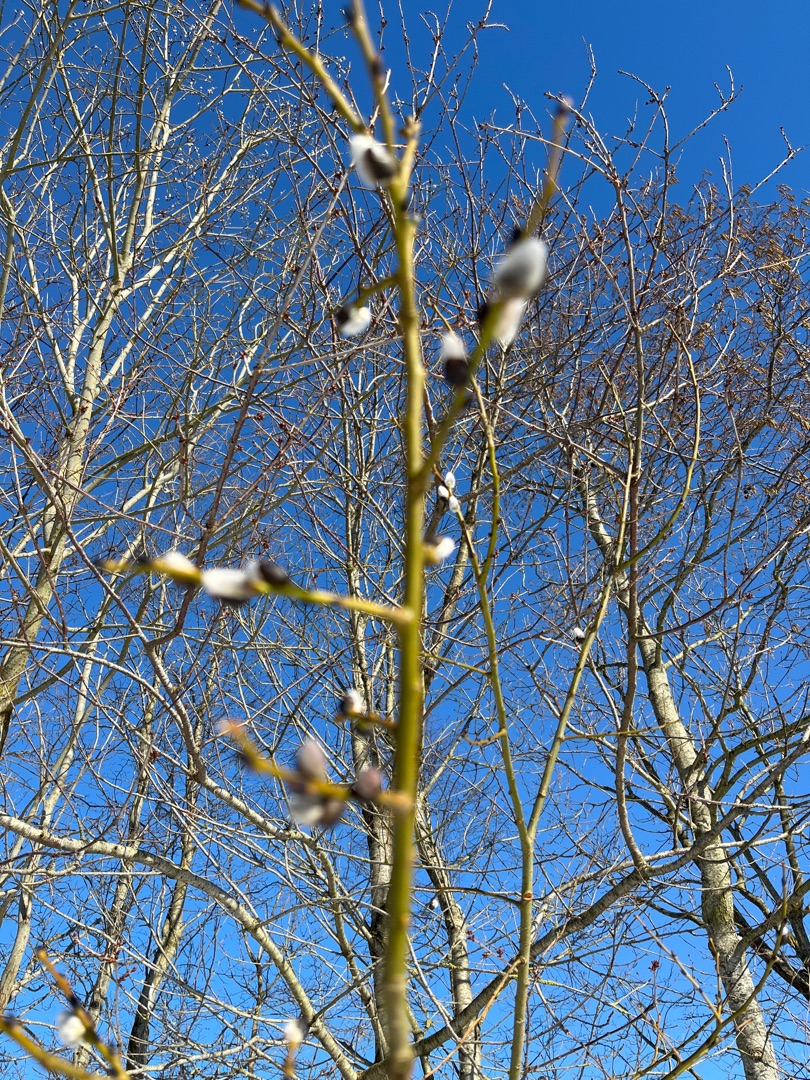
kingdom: Plantae
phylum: Tracheophyta
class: Magnoliopsida
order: Malpighiales
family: Salicaceae
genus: Salix
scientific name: Salix
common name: Pileslægten
